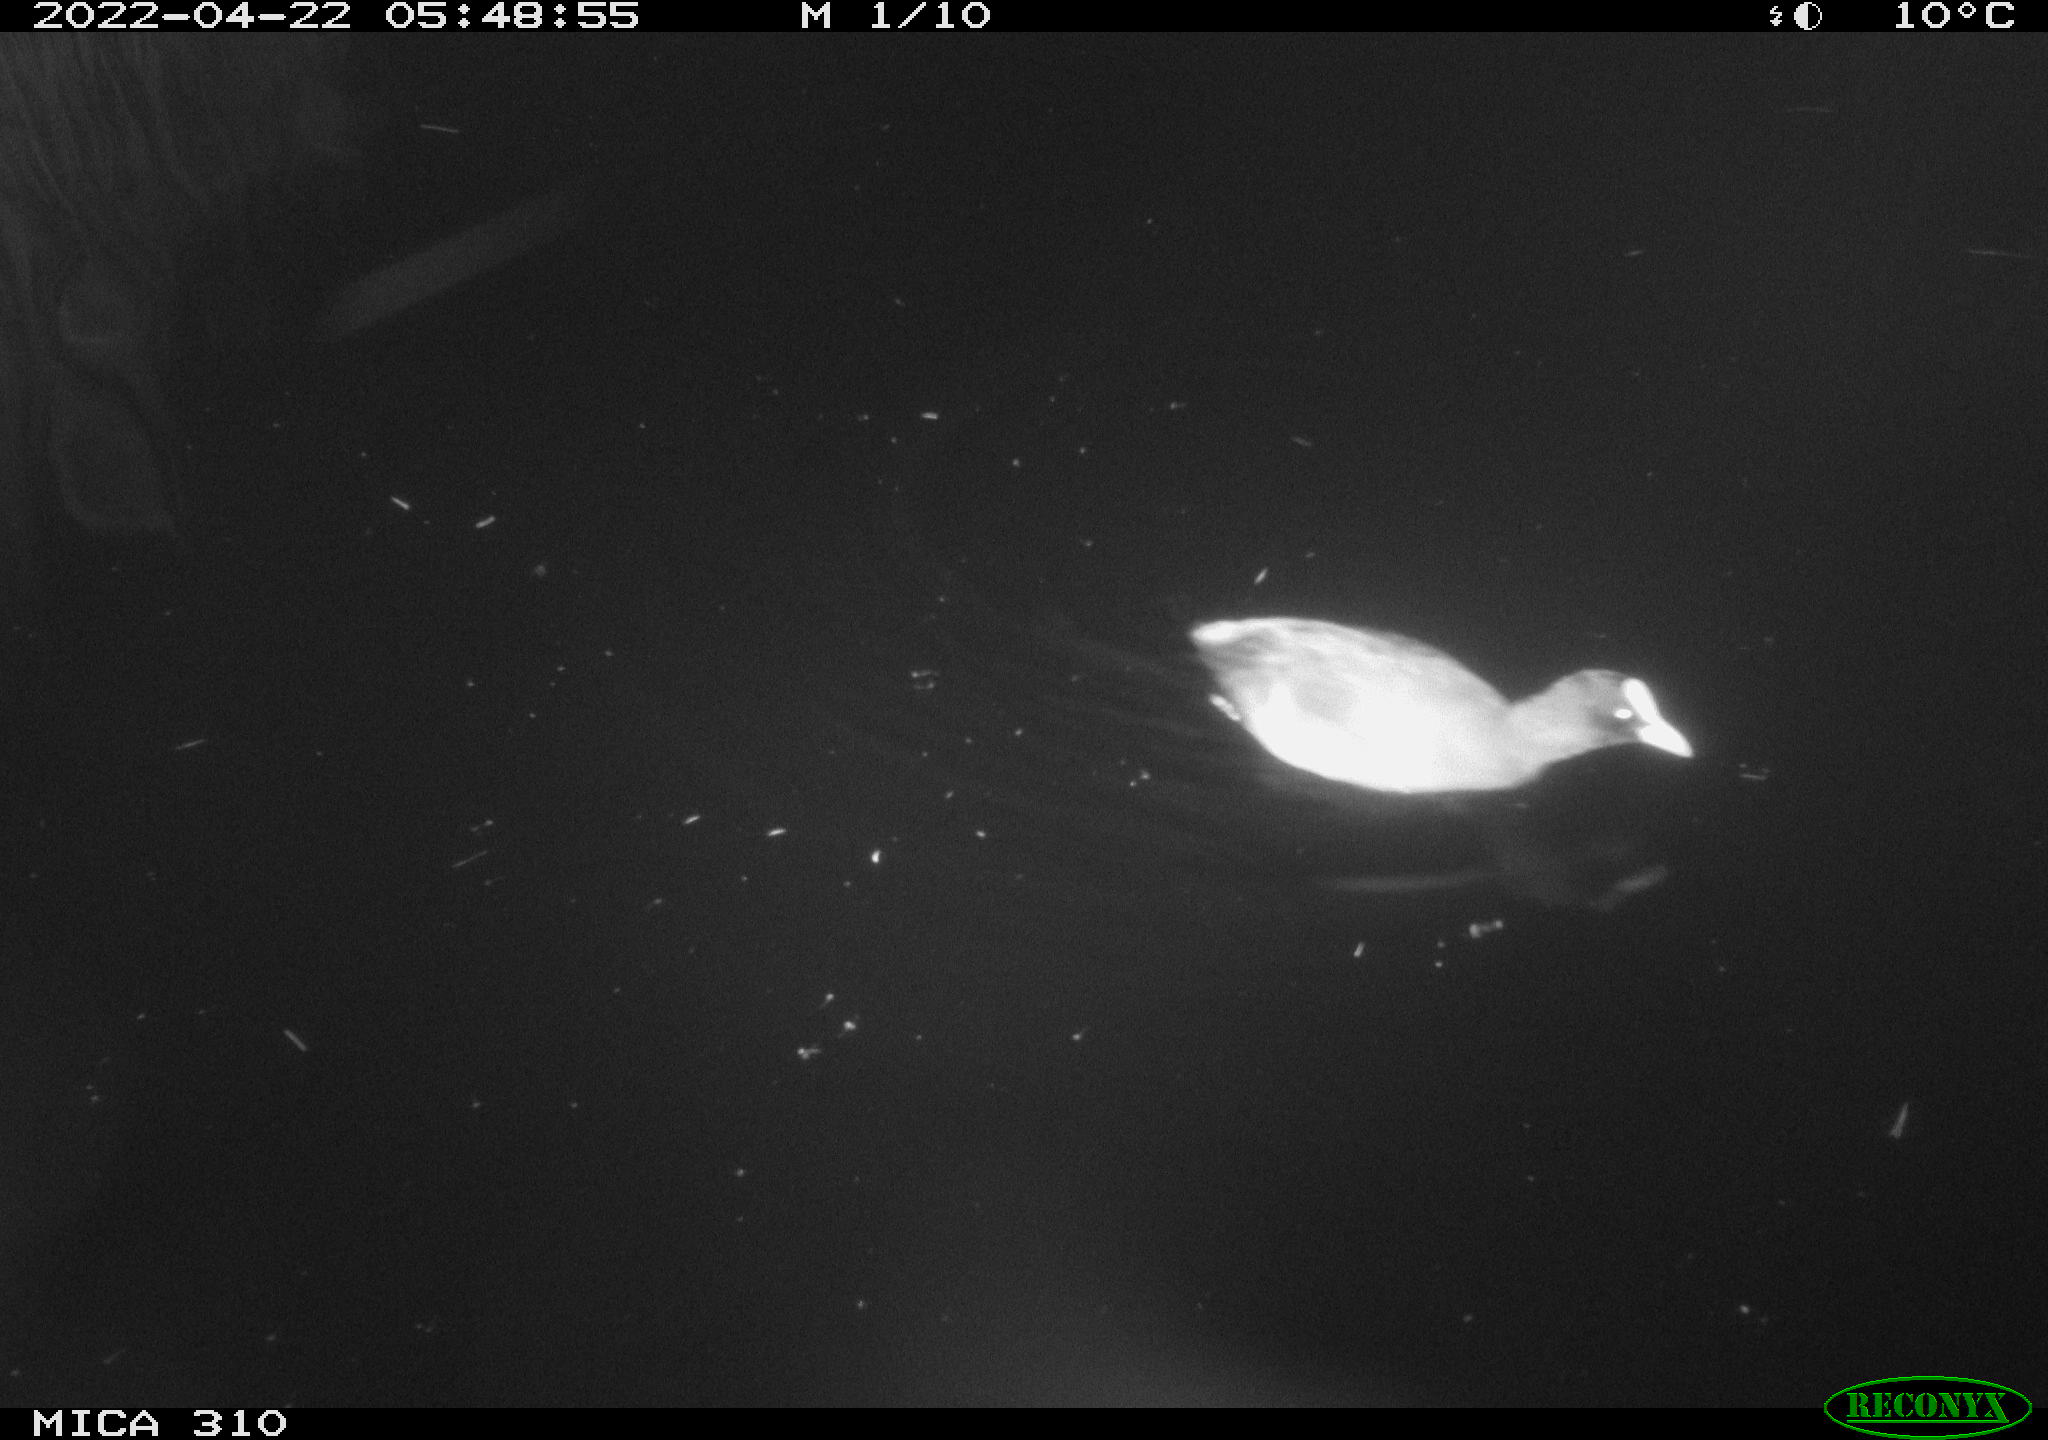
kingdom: Animalia
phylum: Chordata
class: Aves
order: Gruiformes
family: Rallidae
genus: Fulica
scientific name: Fulica atra
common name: Eurasian coot
